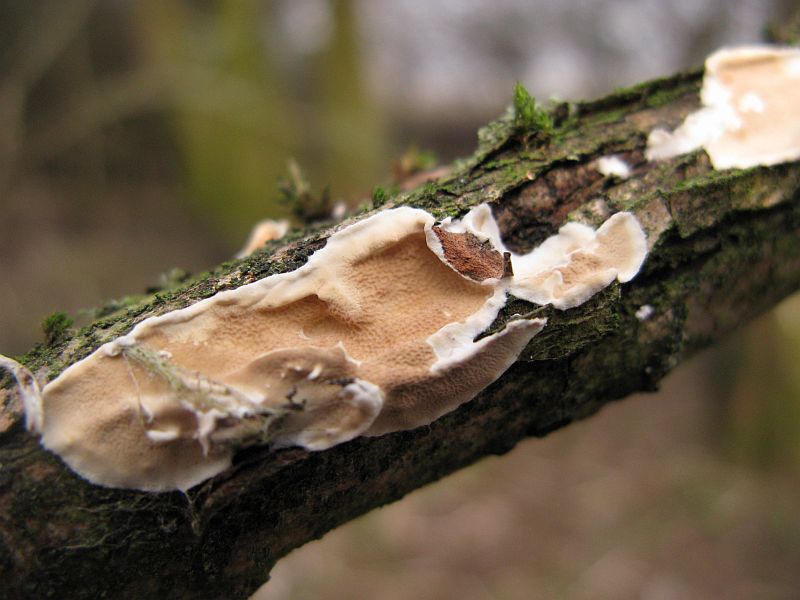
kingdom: Fungi
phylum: Ascomycota
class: Sordariomycetes
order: Xylariales
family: Diatrypaceae
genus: Diatrype
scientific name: Diatrype bullata
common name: pile-kulskorpe
